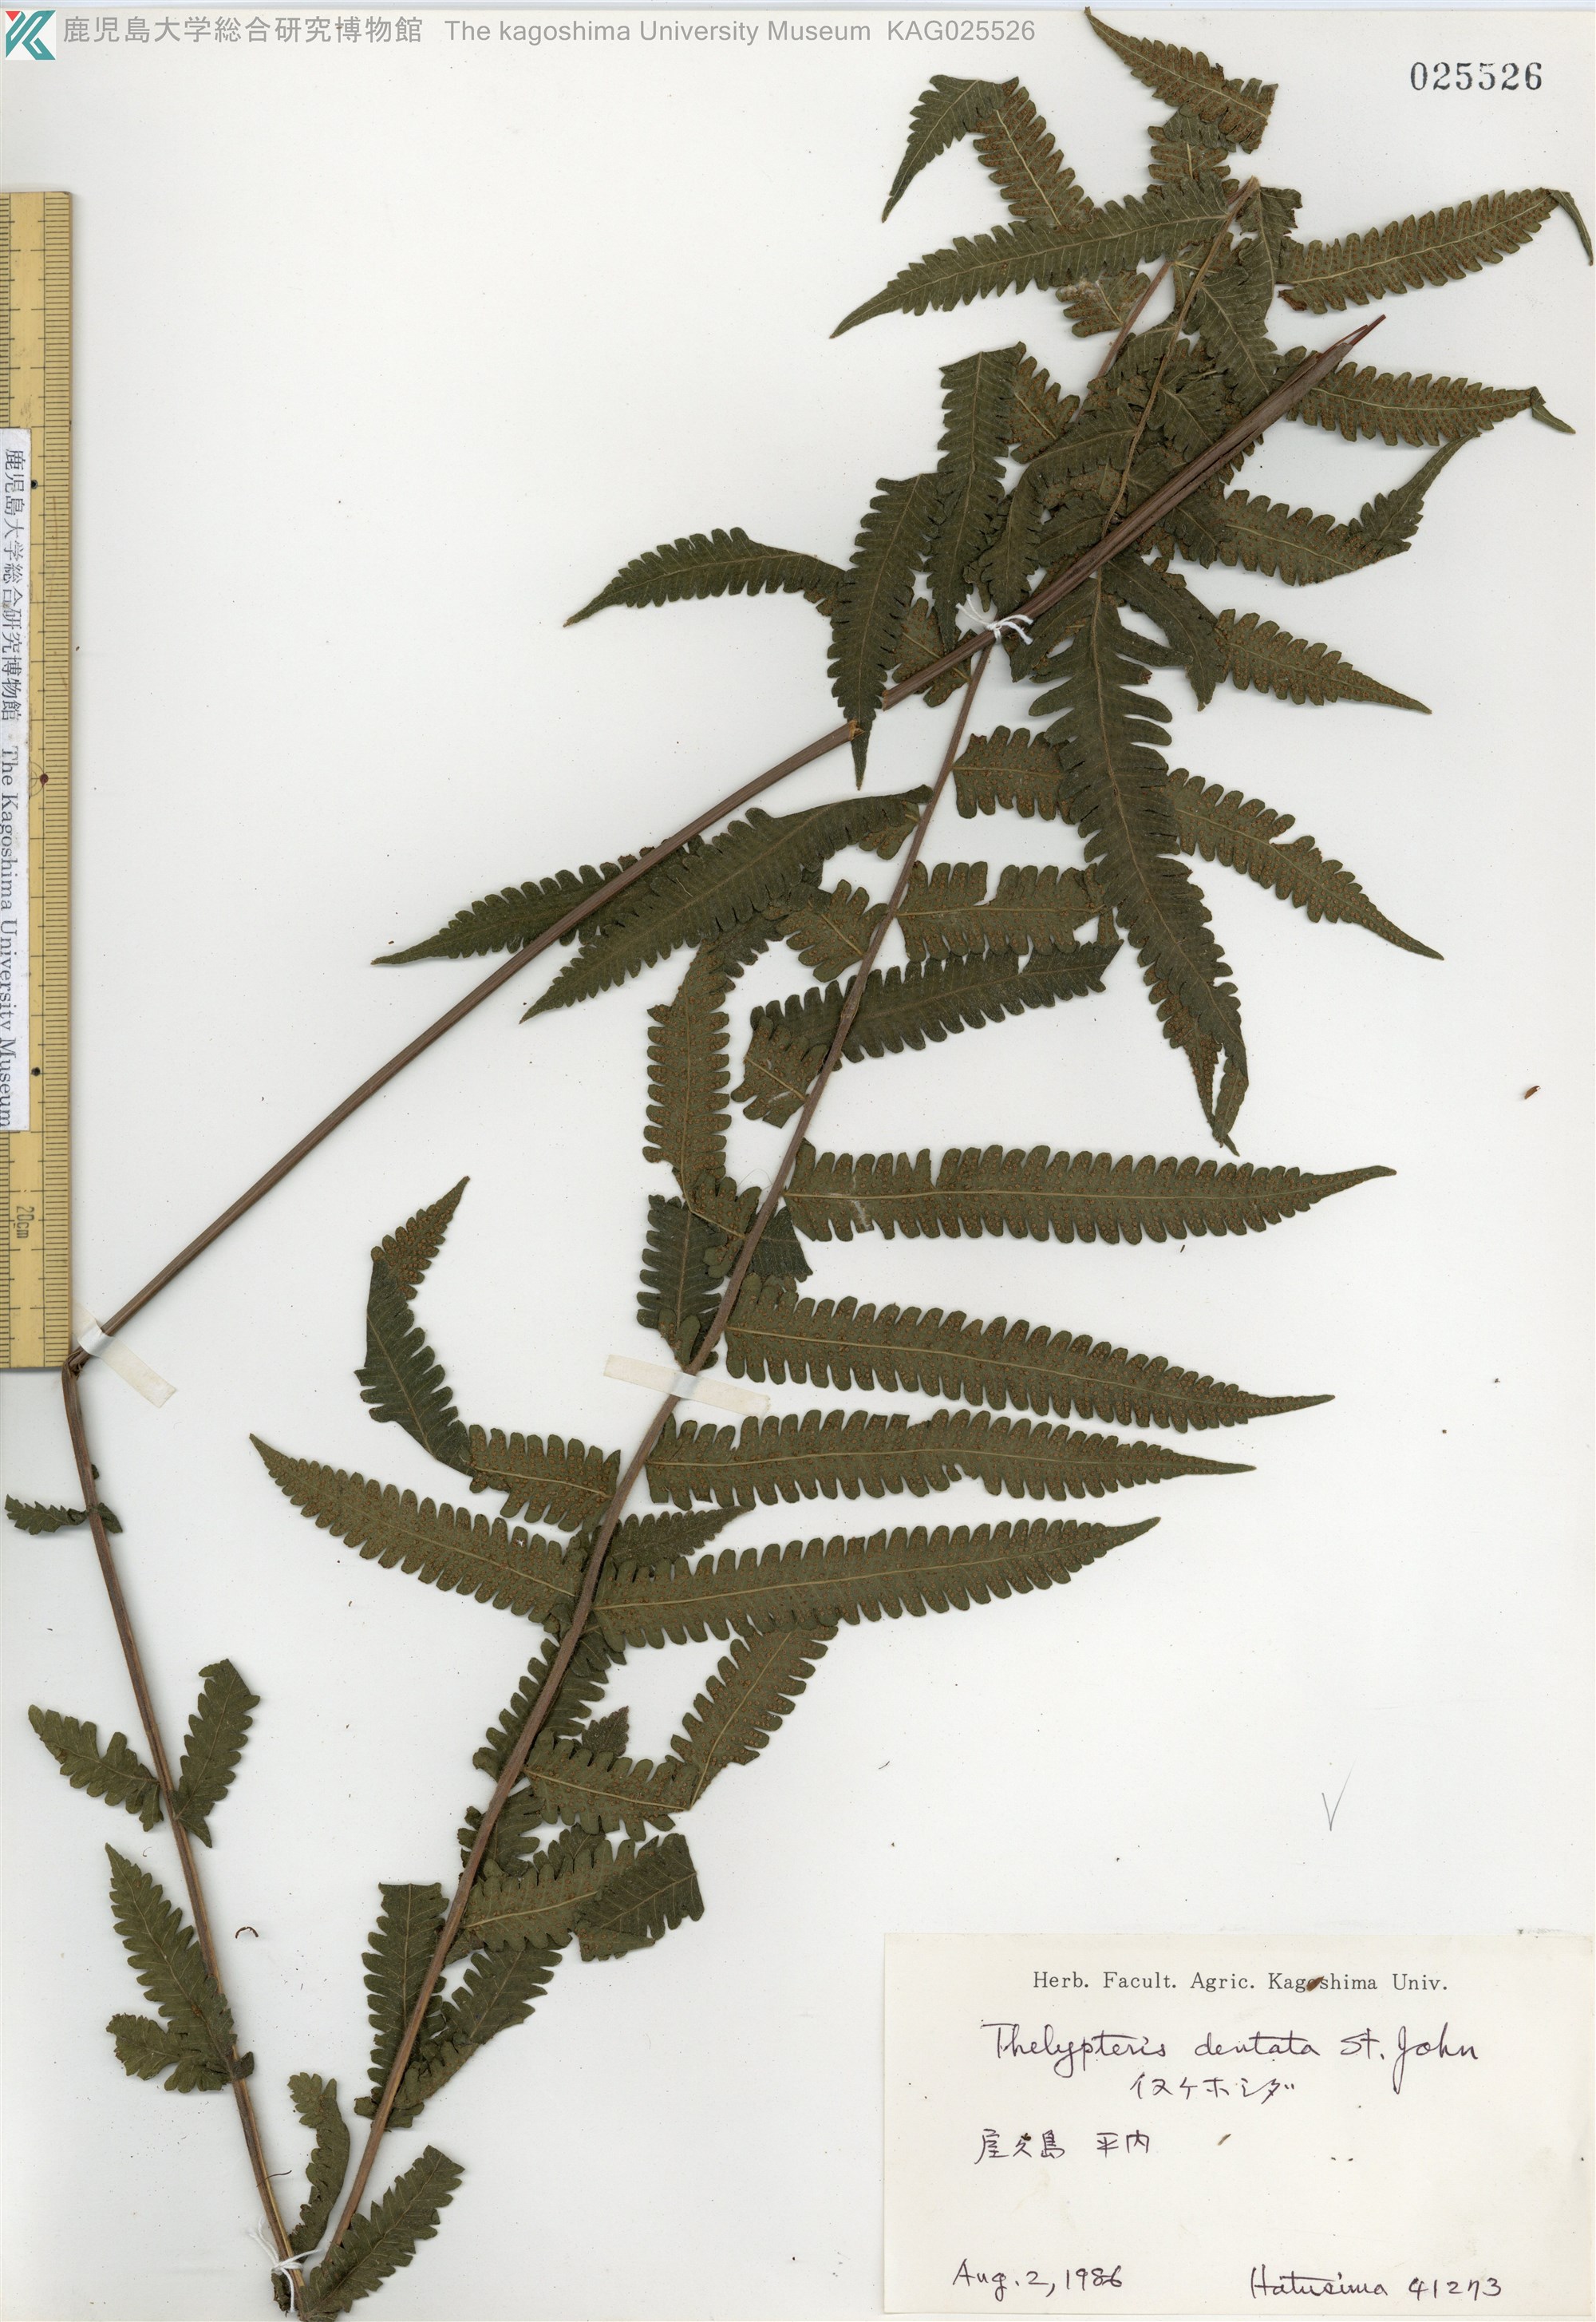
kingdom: Plantae
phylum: Tracheophyta
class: Polypodiopsida
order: Polypodiales
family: Thelypteridaceae
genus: Christella
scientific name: Christella dentata
